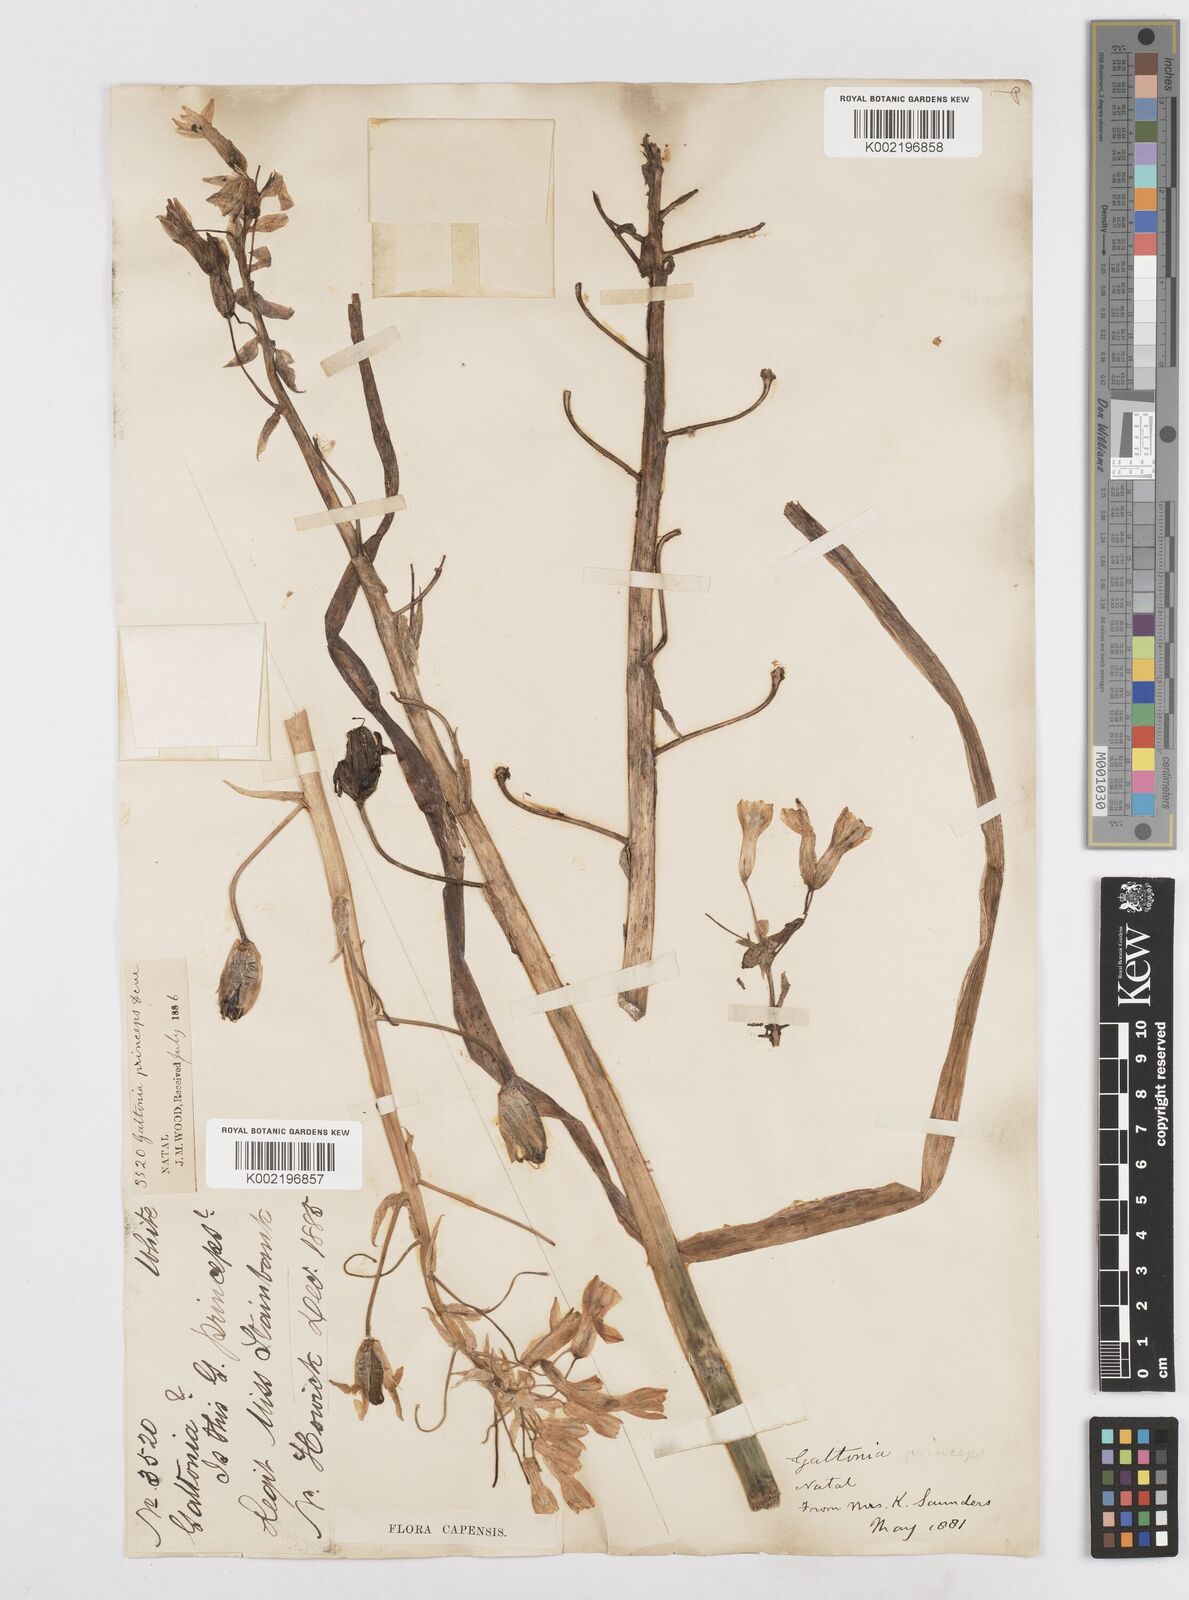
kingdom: Plantae
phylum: Tracheophyta
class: Liliopsida
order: Asparagales
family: Asparagaceae
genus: Ornithogalum
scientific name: Ornithogalum princeps
